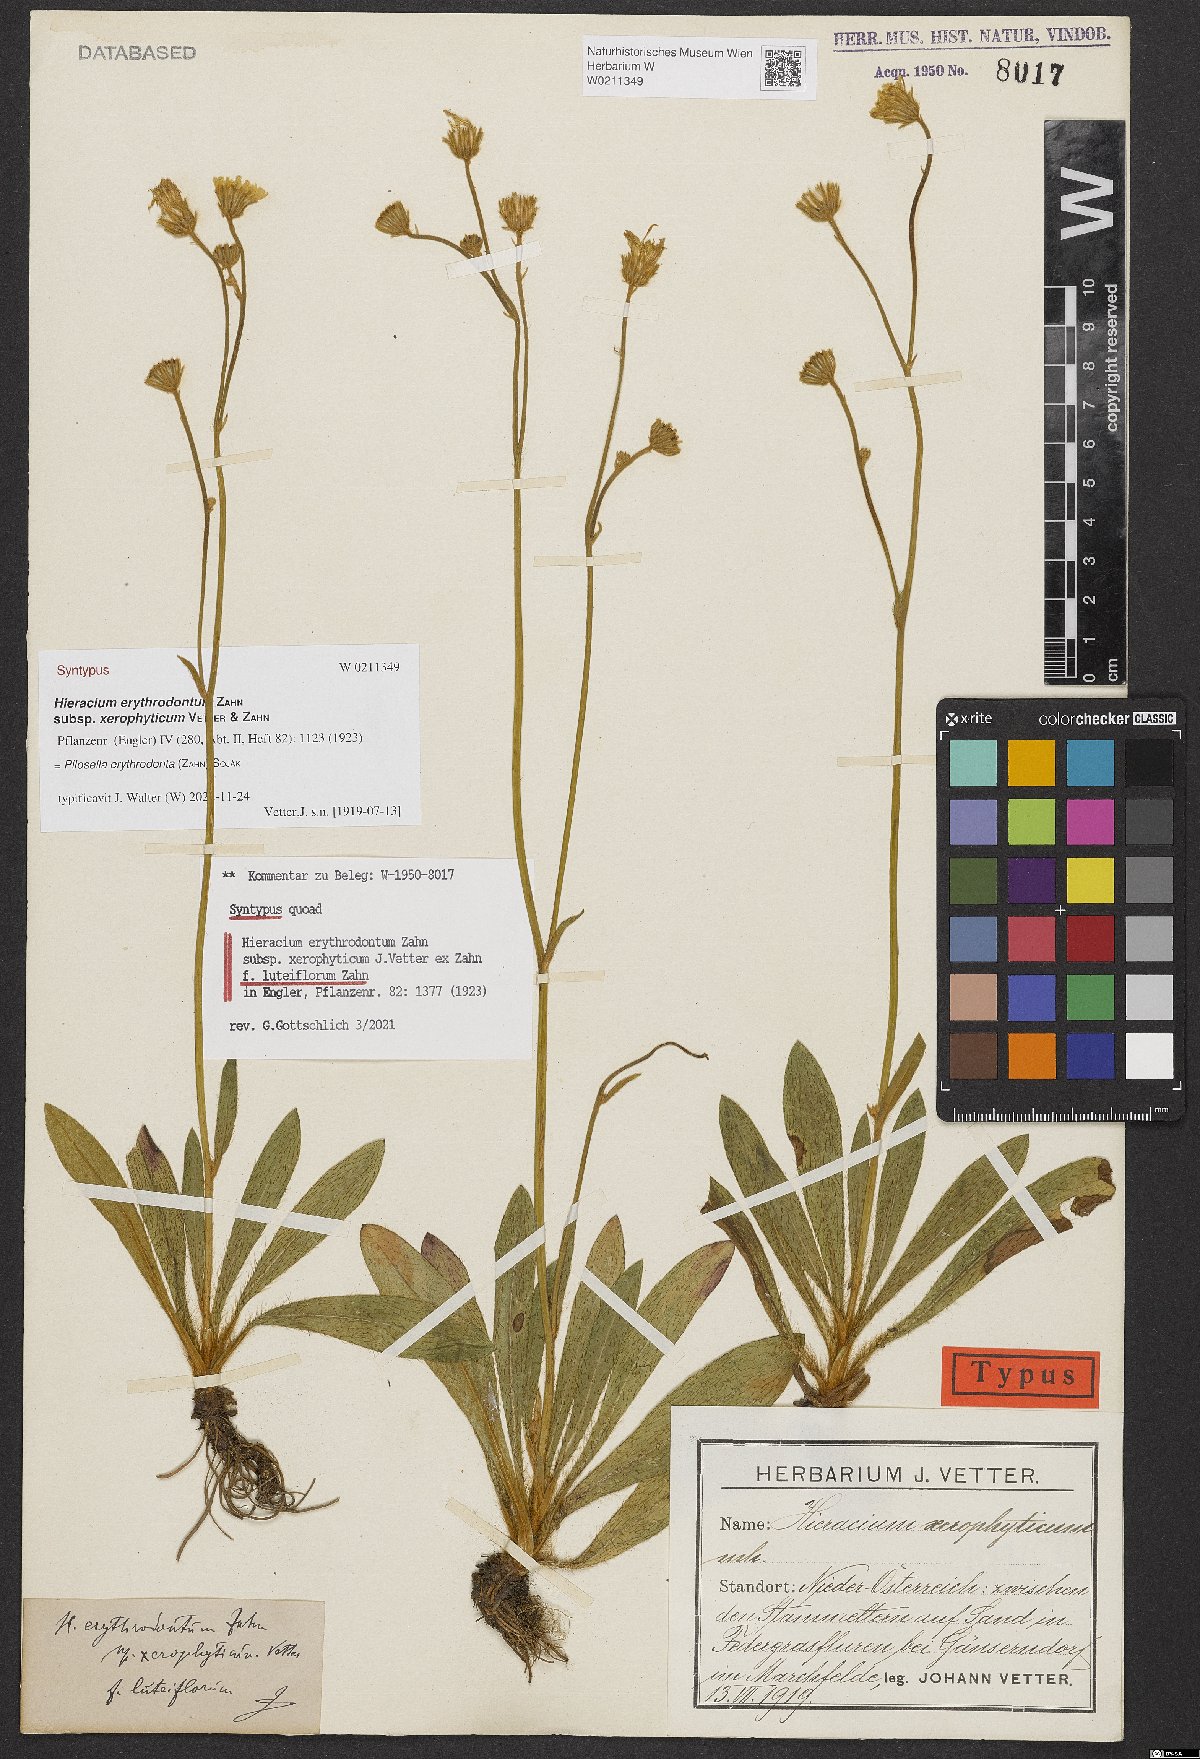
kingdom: Plantae
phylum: Tracheophyta
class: Magnoliopsida
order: Asterales
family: Asteraceae
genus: Pilosella
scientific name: Pilosella erythrodonta
